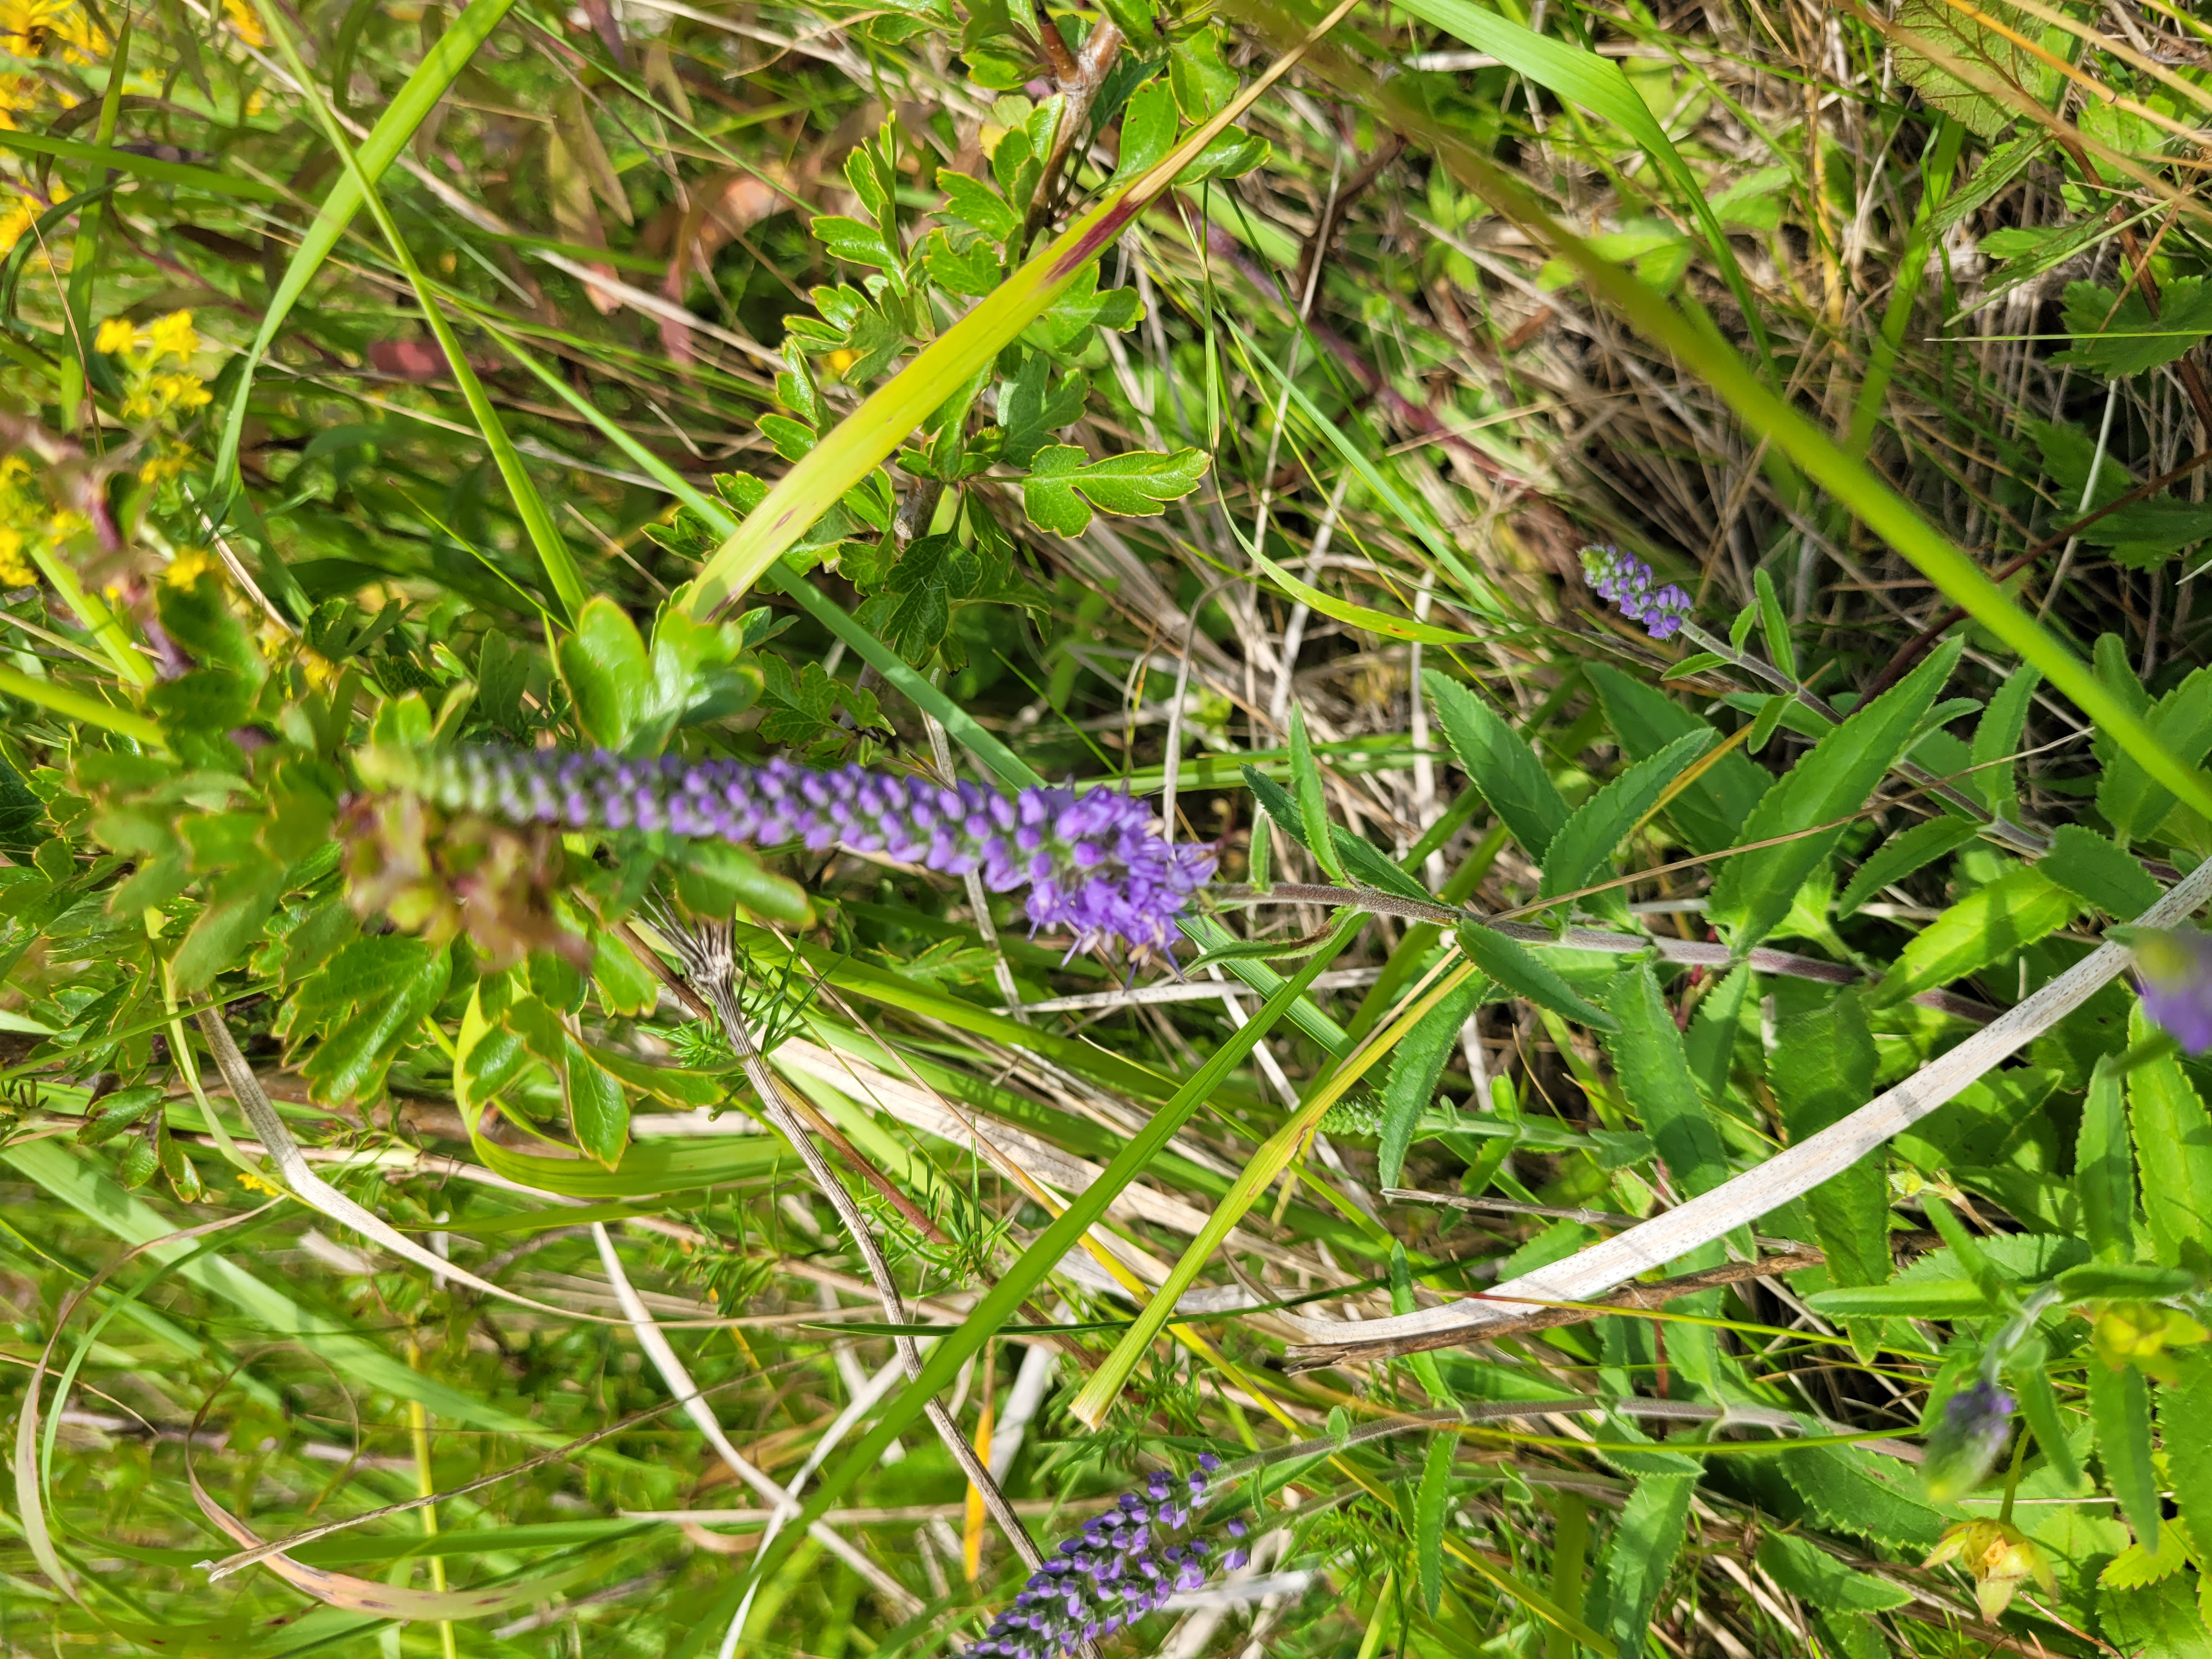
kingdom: Plantae
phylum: Tracheophyta
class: Magnoliopsida
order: Lamiales
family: Plantaginaceae
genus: Veronica
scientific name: Veronica longifolia
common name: Langbladet ærenpris
